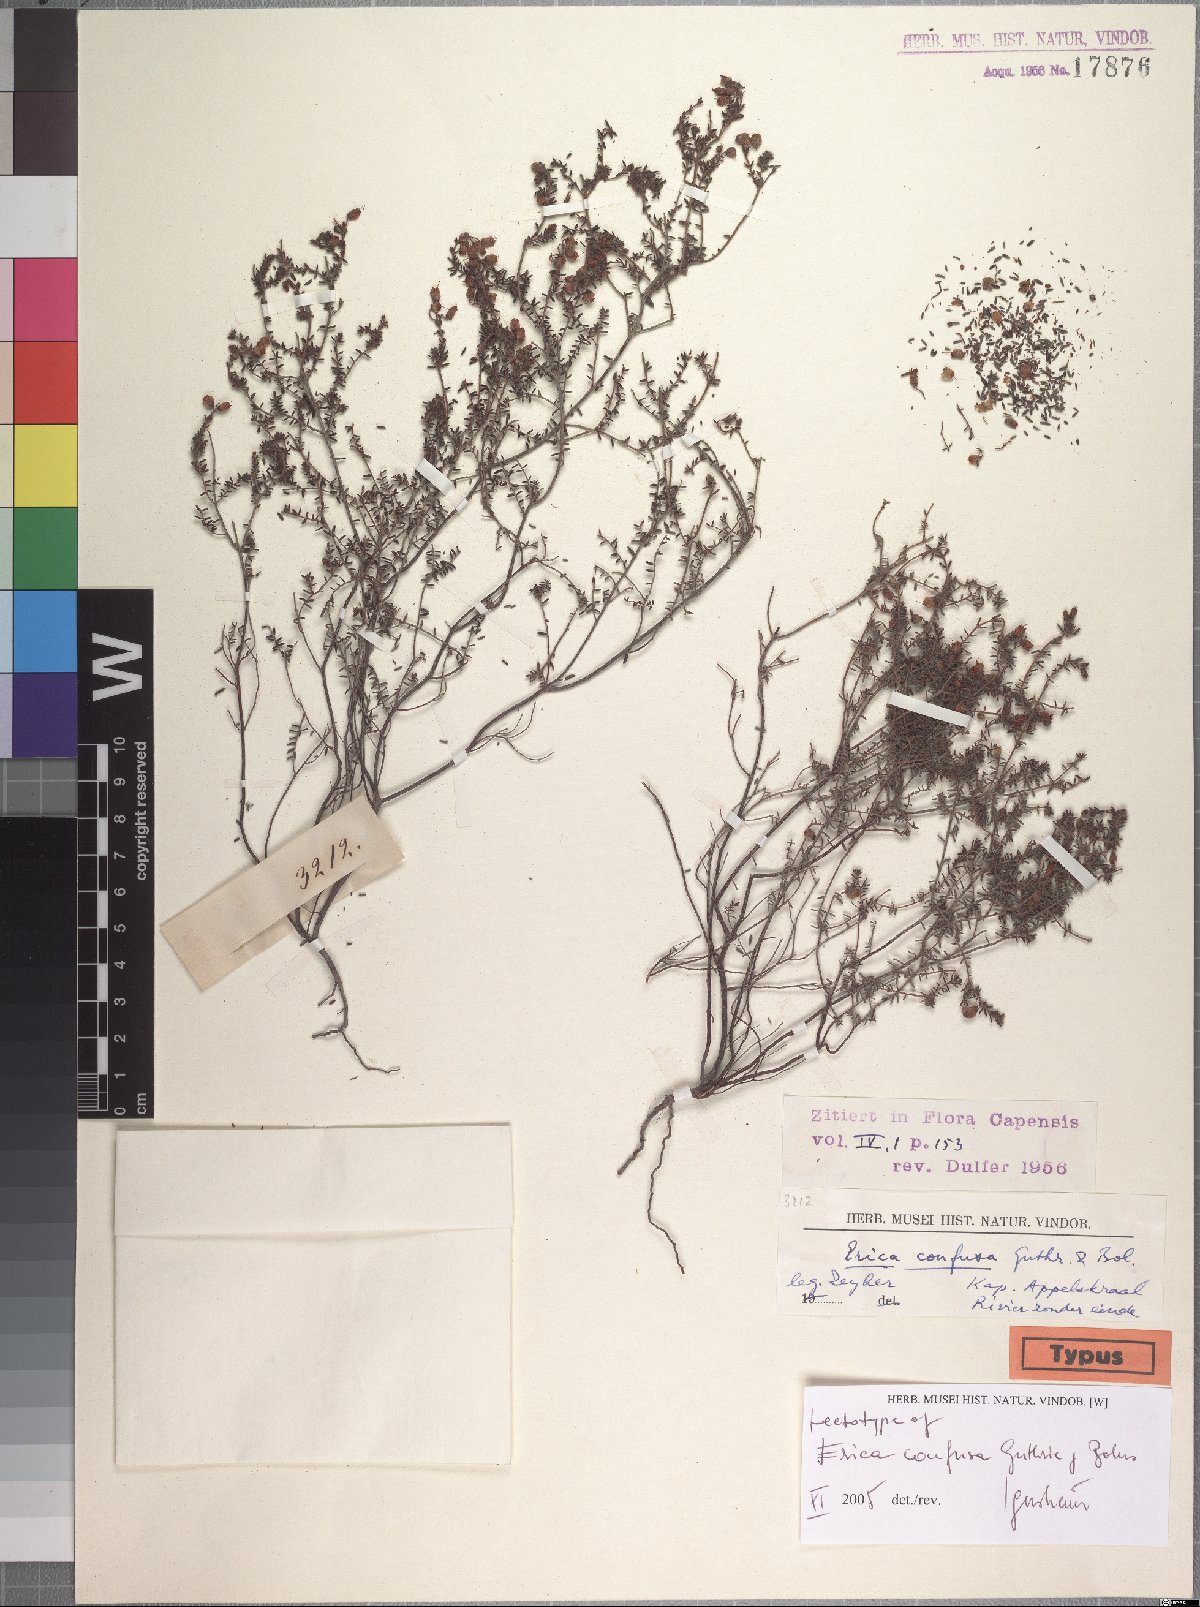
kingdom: Plantae
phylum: Tracheophyta
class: Magnoliopsida
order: Ericales
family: Ericaceae
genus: Erica
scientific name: Erica permutata
